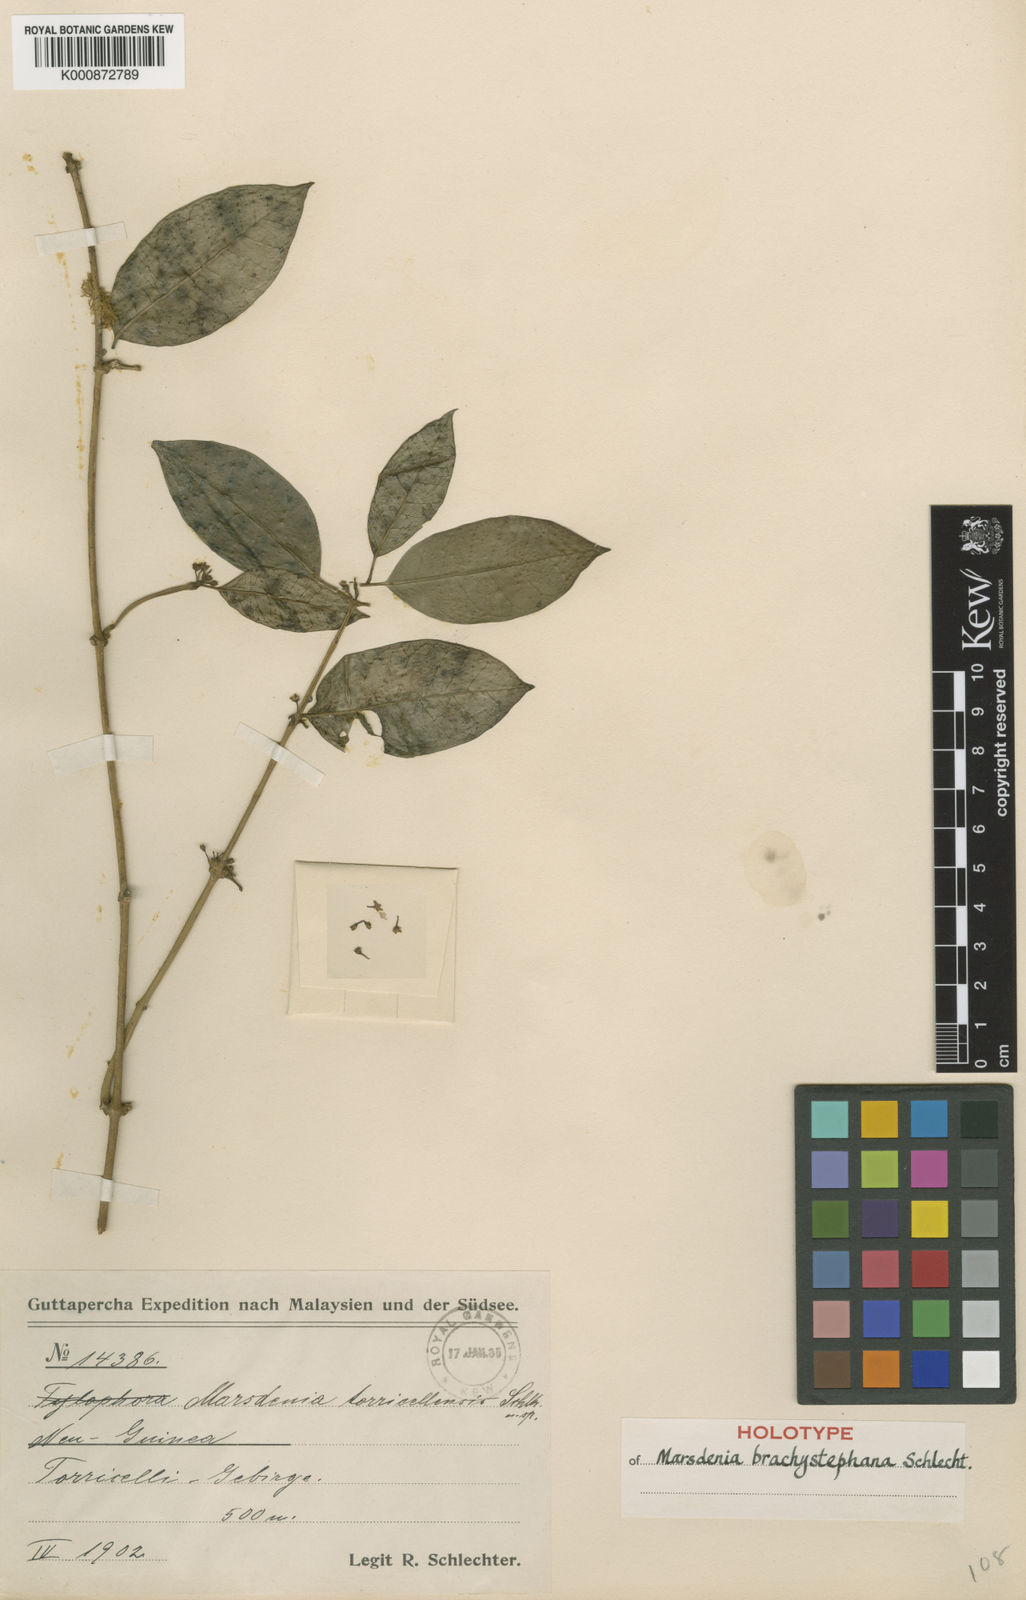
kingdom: Plantae
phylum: Tracheophyta
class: Magnoliopsida
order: Gentianales
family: Apocynaceae
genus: Sarcolobus
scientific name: Sarcolobus brachystephanus
